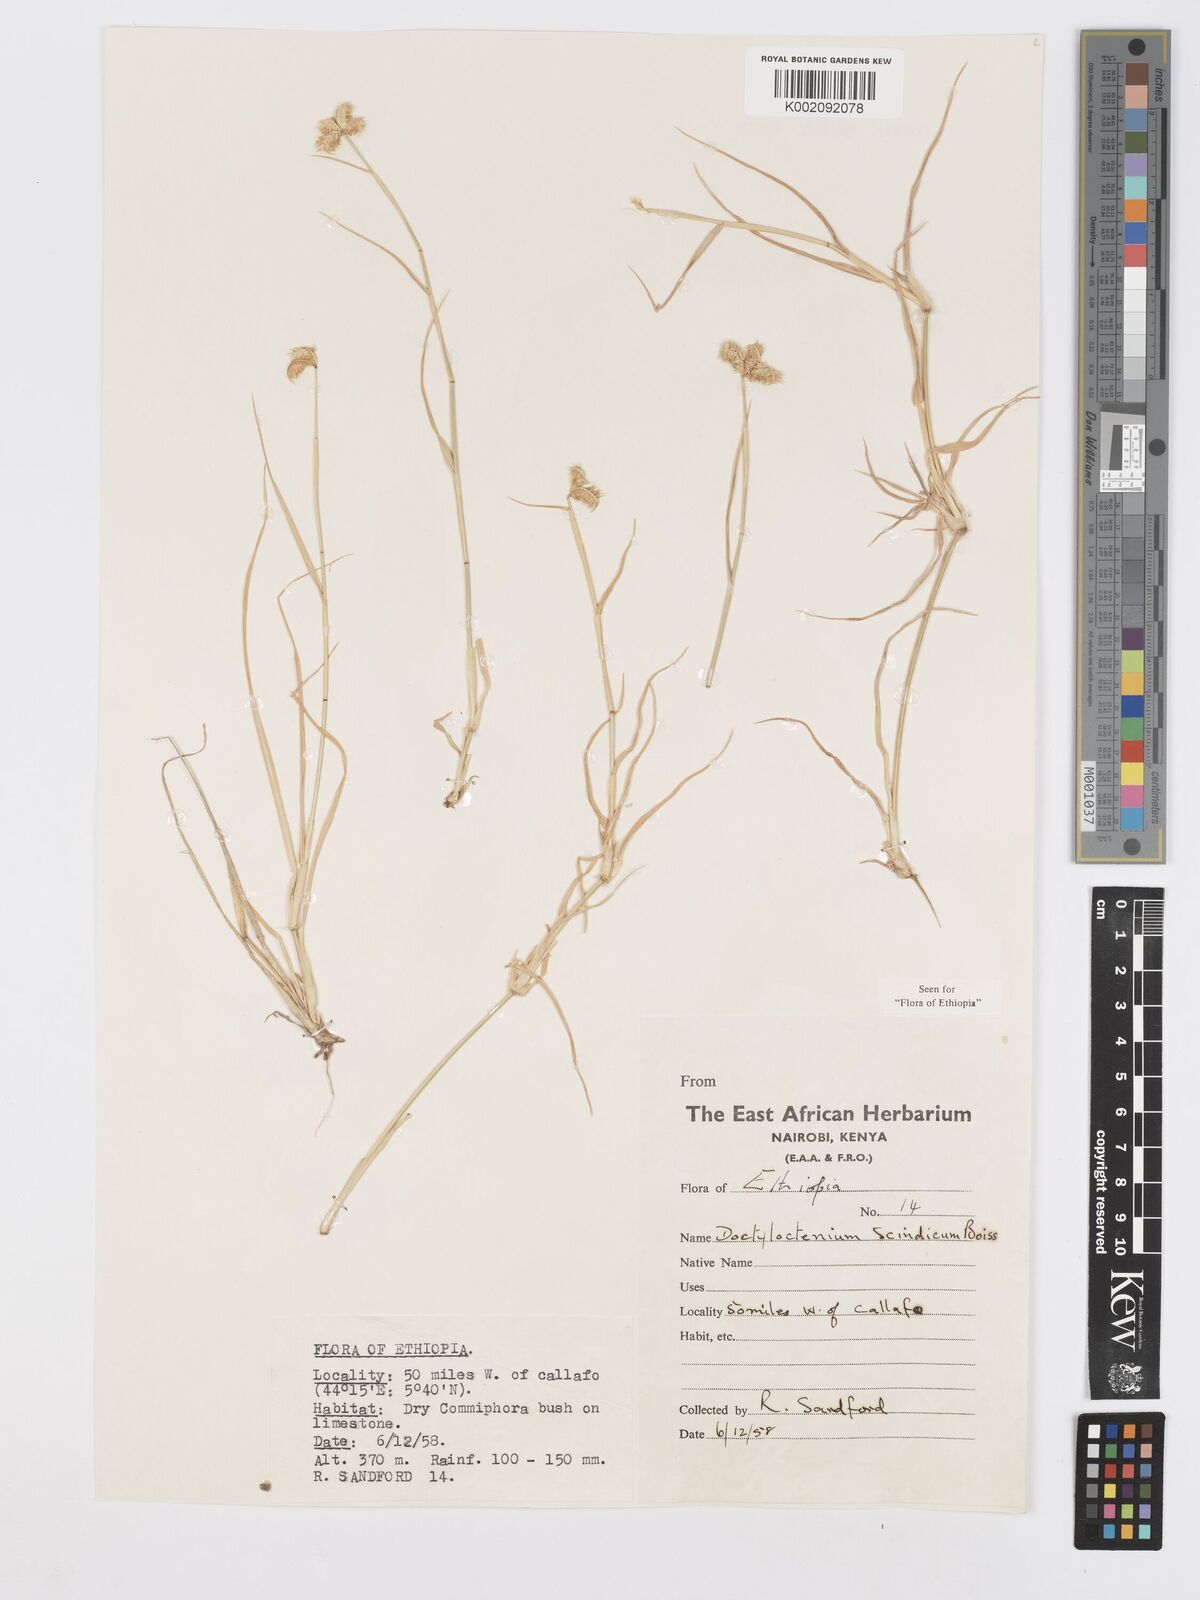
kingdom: Plantae
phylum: Tracheophyta
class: Liliopsida
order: Poales
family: Poaceae
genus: Dactyloctenium
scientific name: Dactyloctenium scindicum
